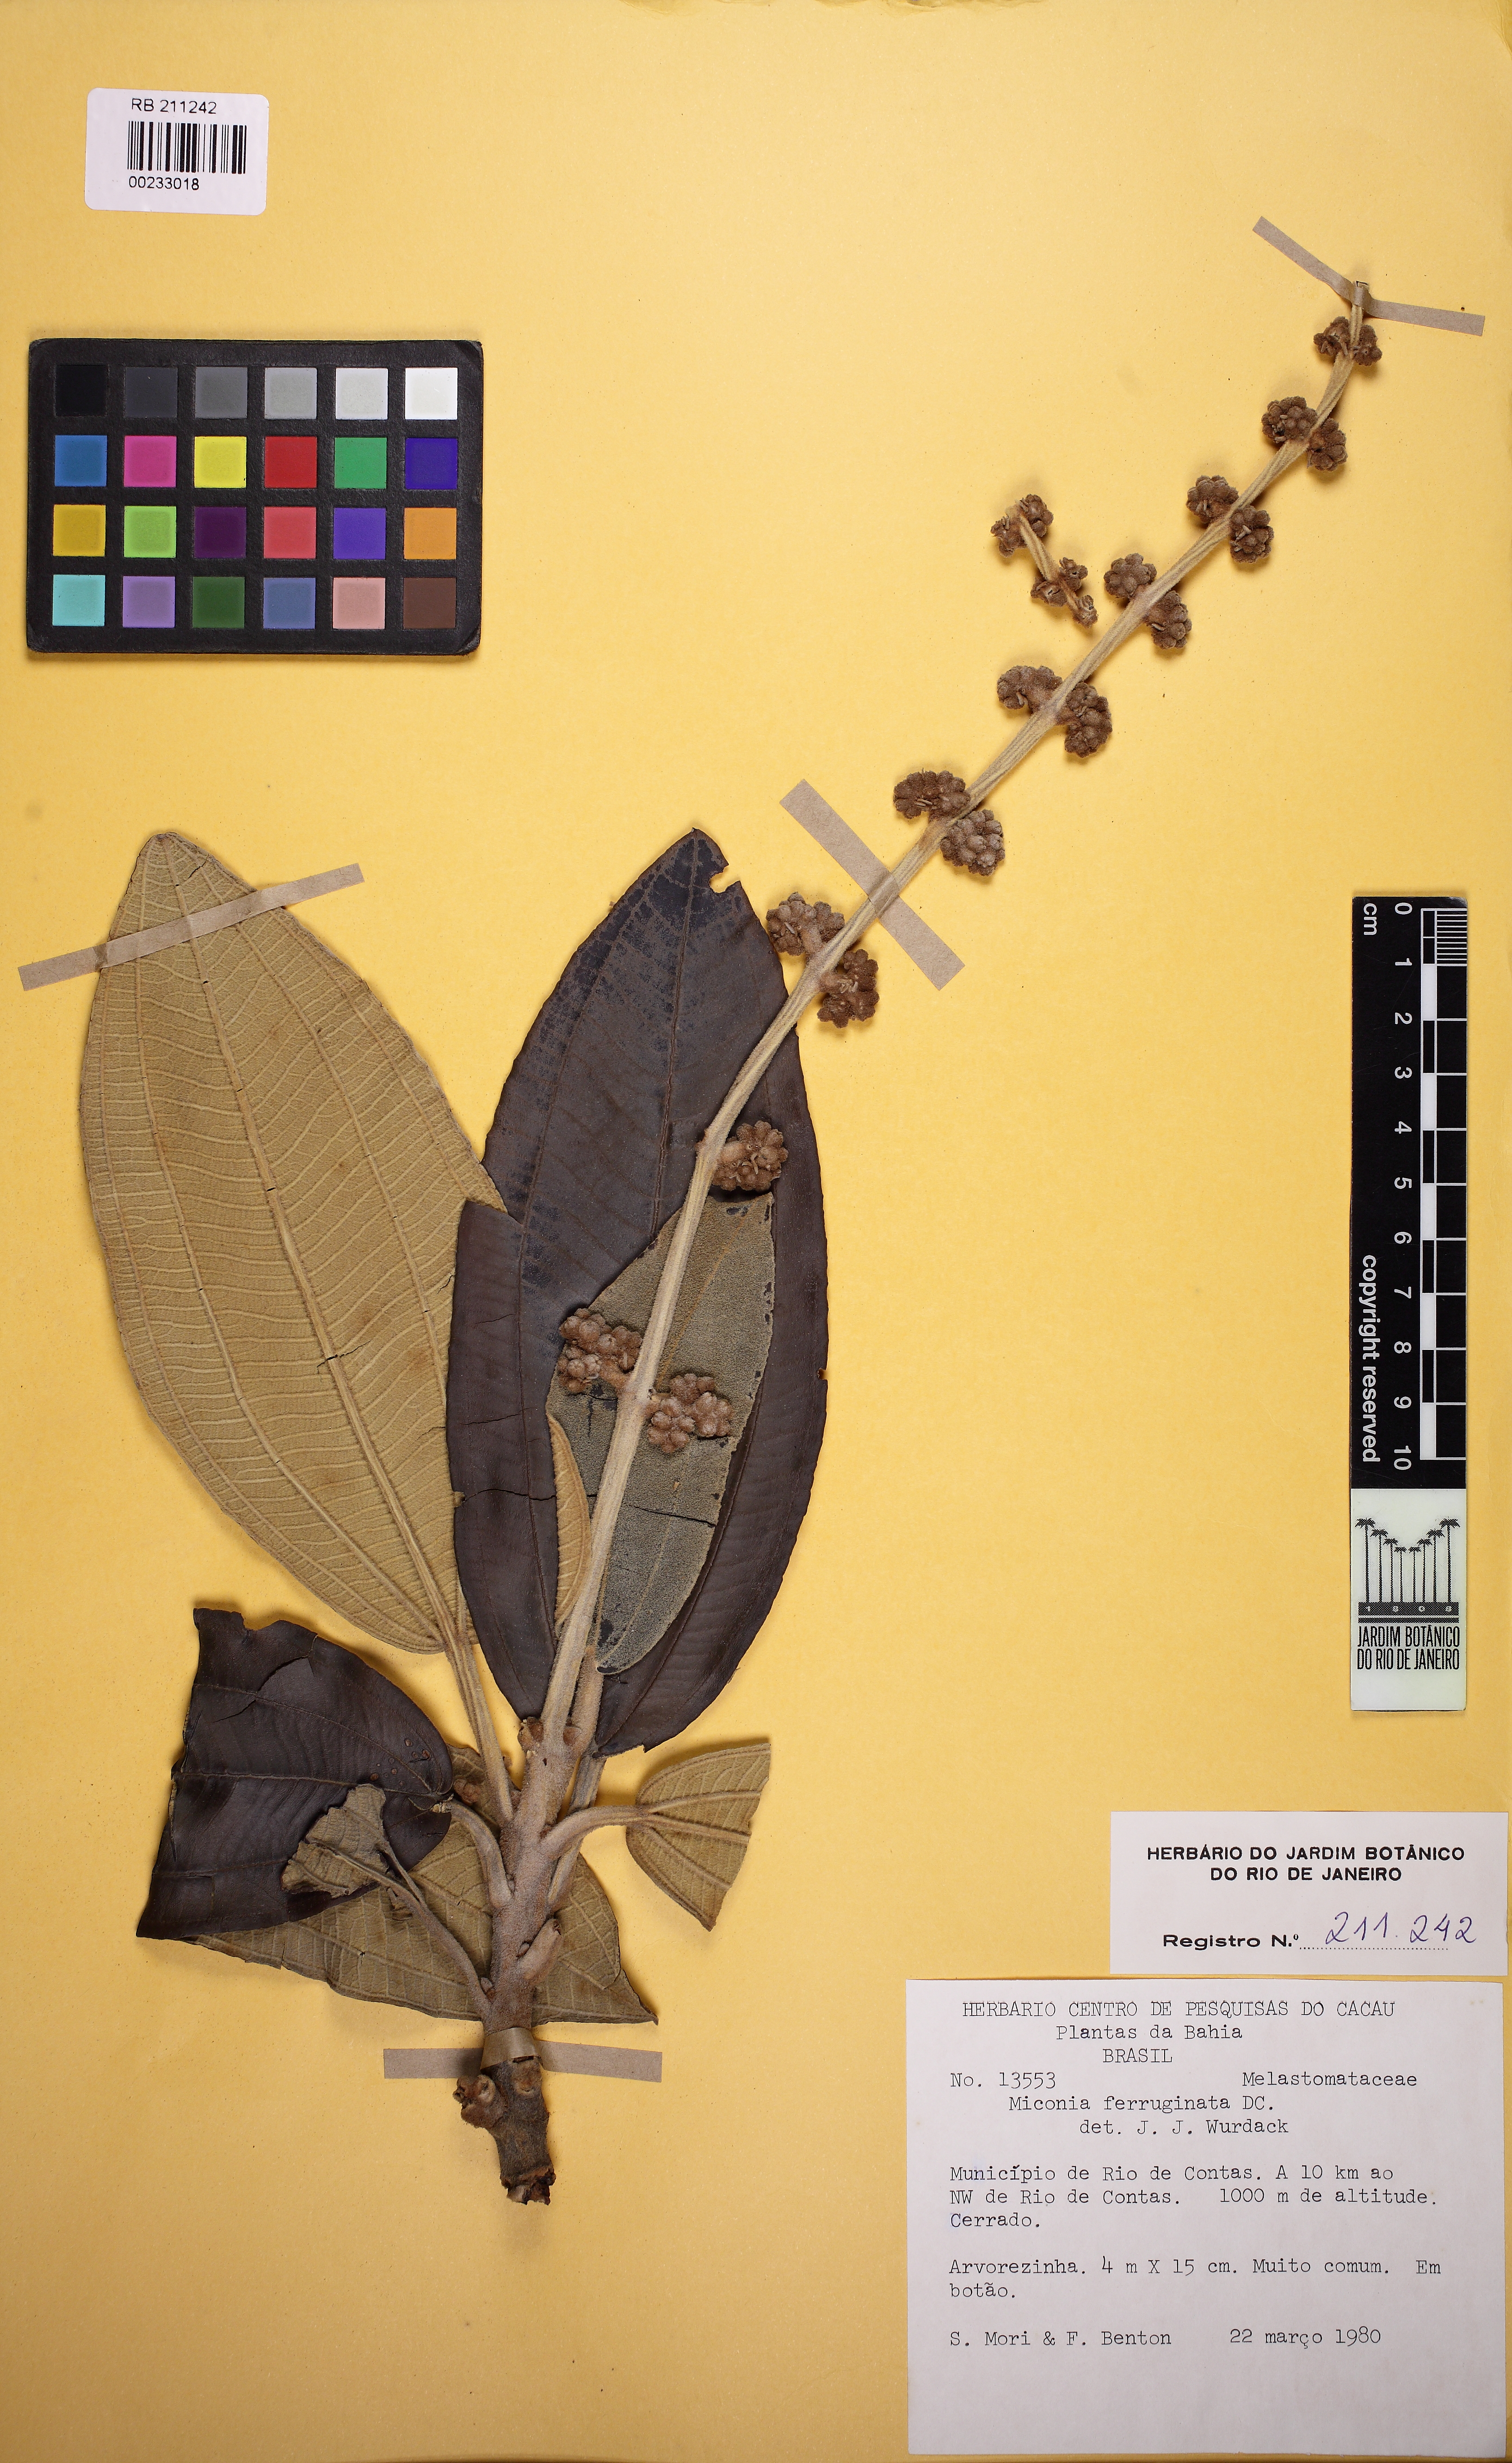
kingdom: Plantae
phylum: Tracheophyta
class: Magnoliopsida
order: Myrtales
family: Melastomataceae
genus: Miconia
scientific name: Miconia ferruginata
